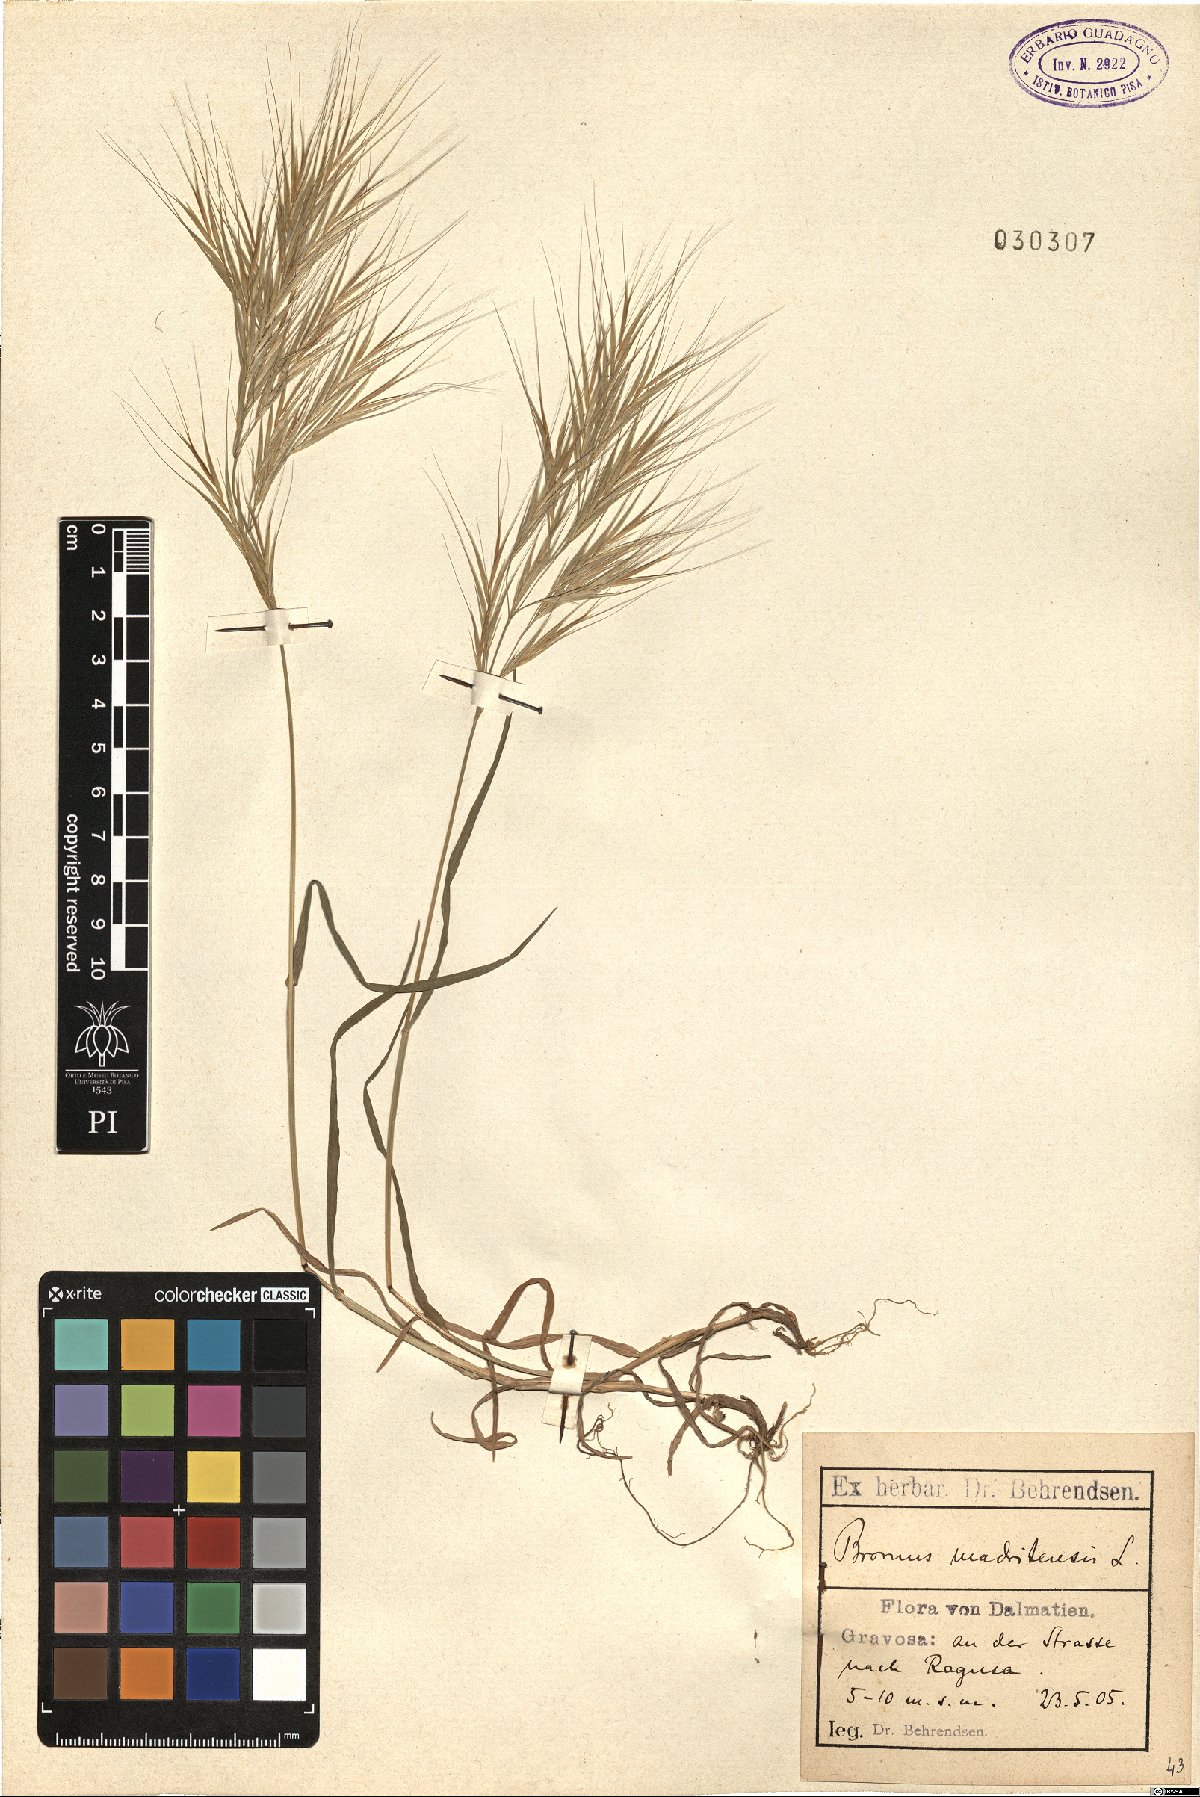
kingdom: Plantae
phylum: Tracheophyta
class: Liliopsida
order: Poales
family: Poaceae
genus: Bromus
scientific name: Bromus madritensis
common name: Compact brome
